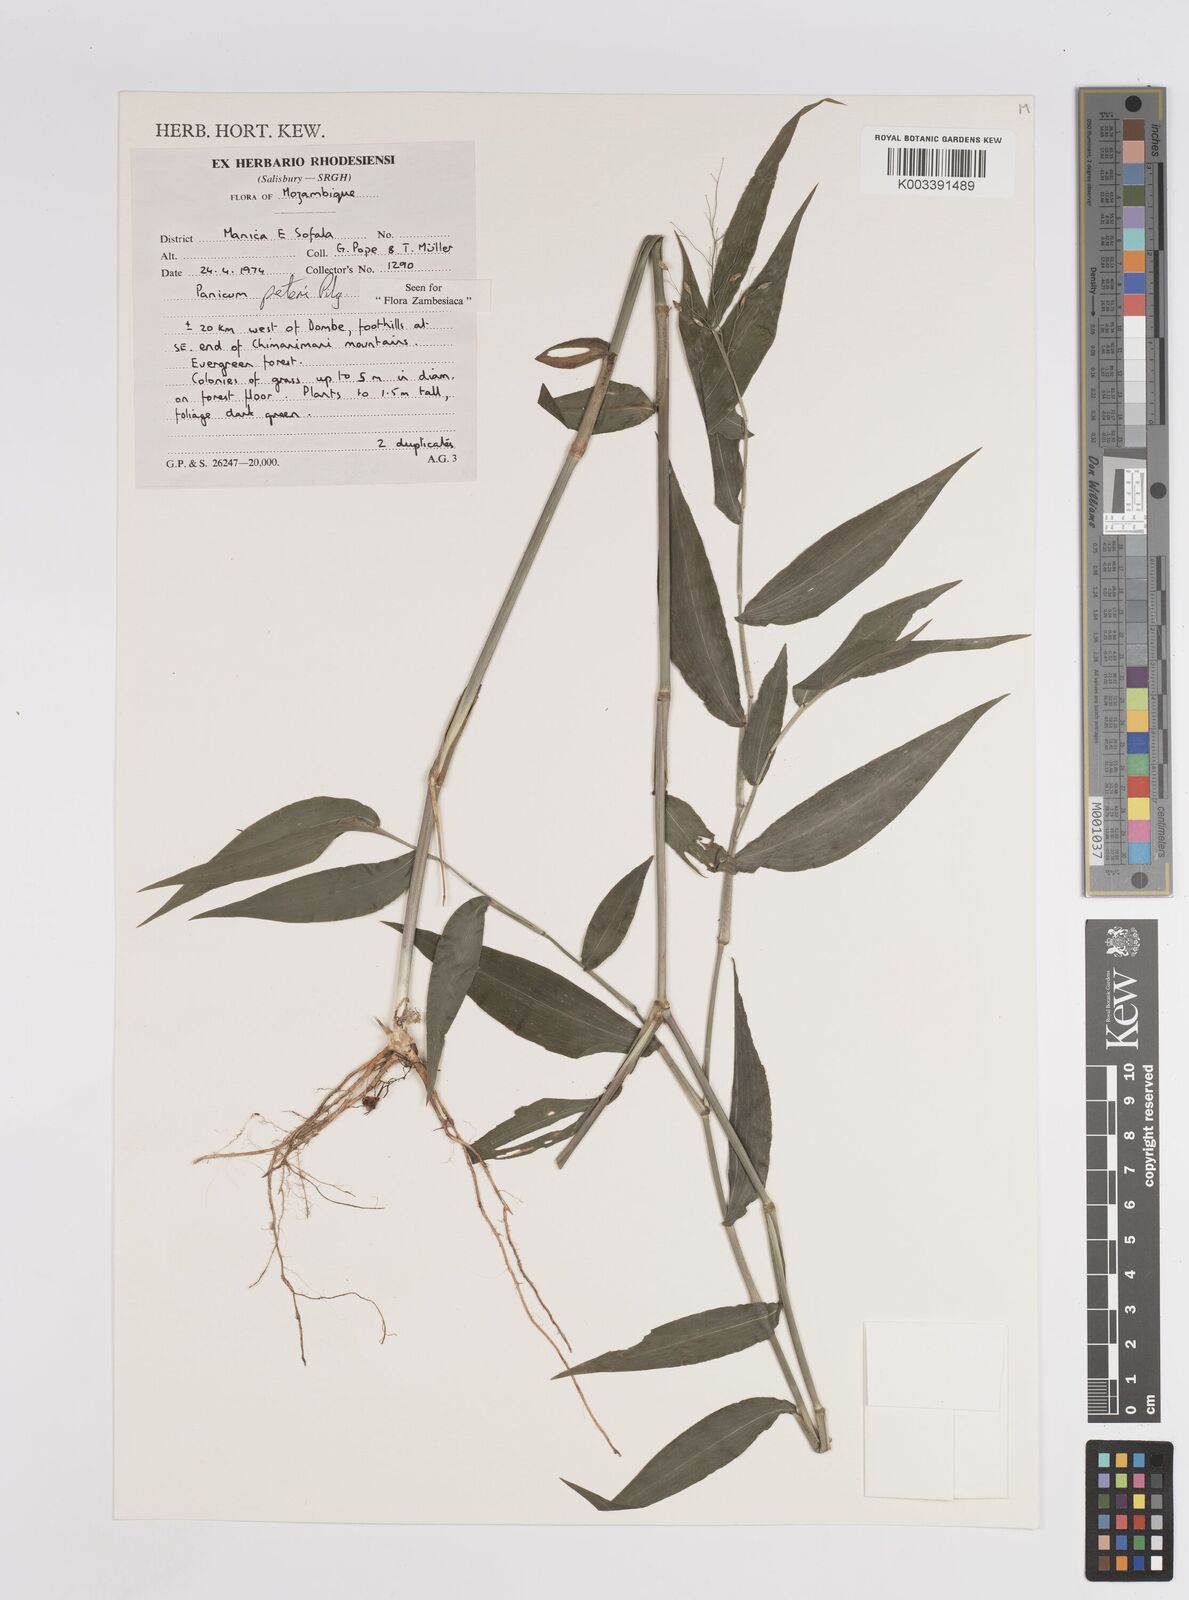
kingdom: Plantae
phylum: Tracheophyta
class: Liliopsida
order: Poales
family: Poaceae
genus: Adenochloa
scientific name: Adenochloa squarrosa
